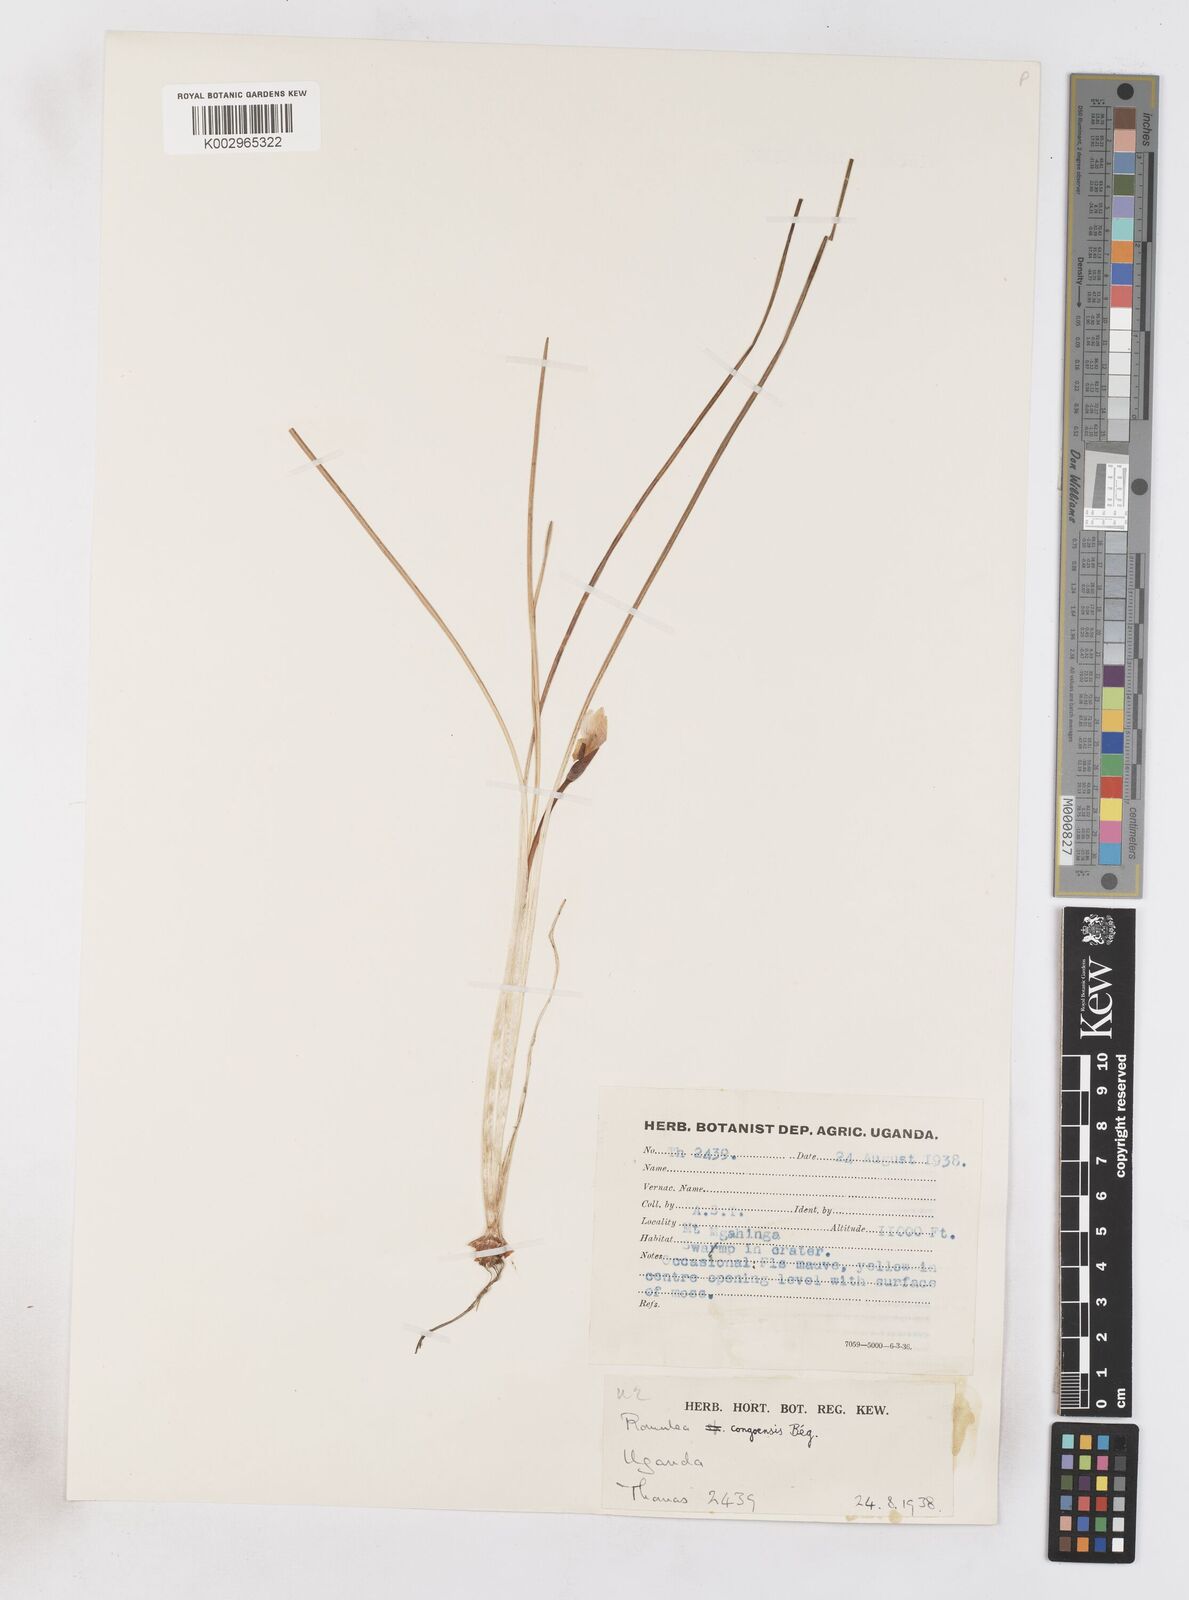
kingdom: Plantae
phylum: Tracheophyta
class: Liliopsida
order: Asparagales
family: Iridaceae
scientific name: Iridaceae
